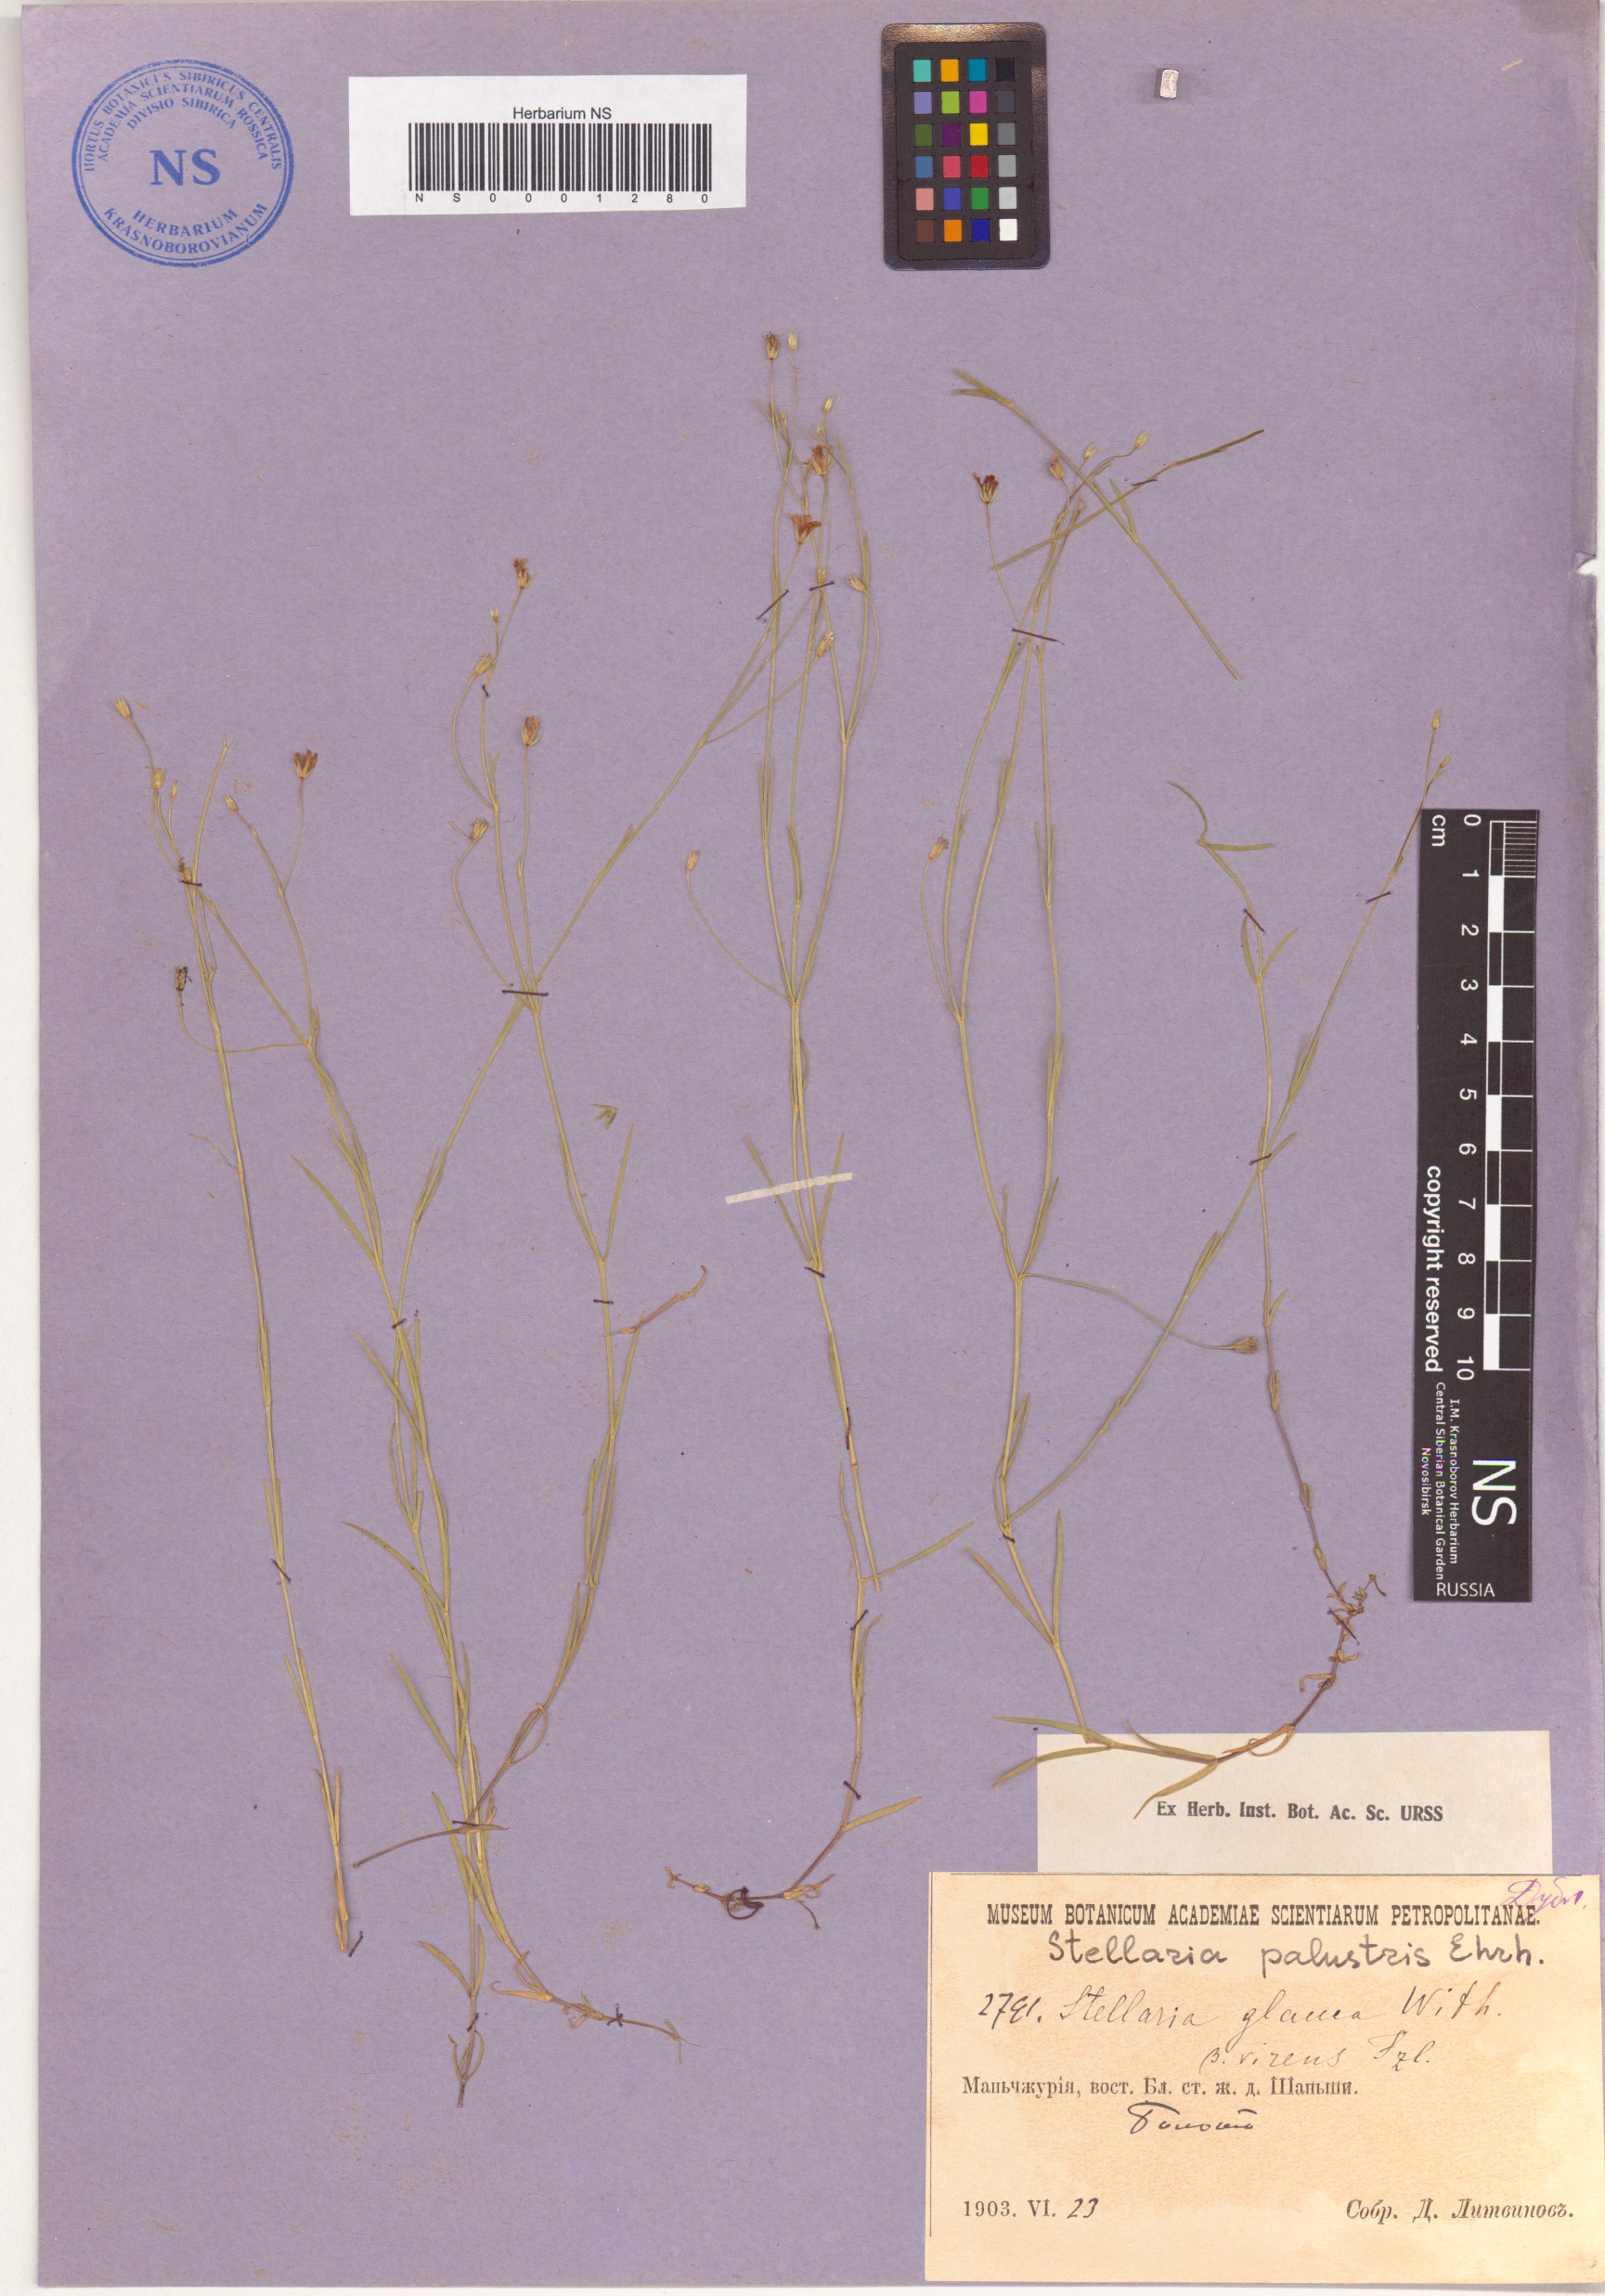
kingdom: Plantae
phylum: Tracheophyta
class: Magnoliopsida
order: Caryophyllales
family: Caryophyllaceae
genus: Stellaria
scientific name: Stellaria palustris
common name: Marsh stitchwort
